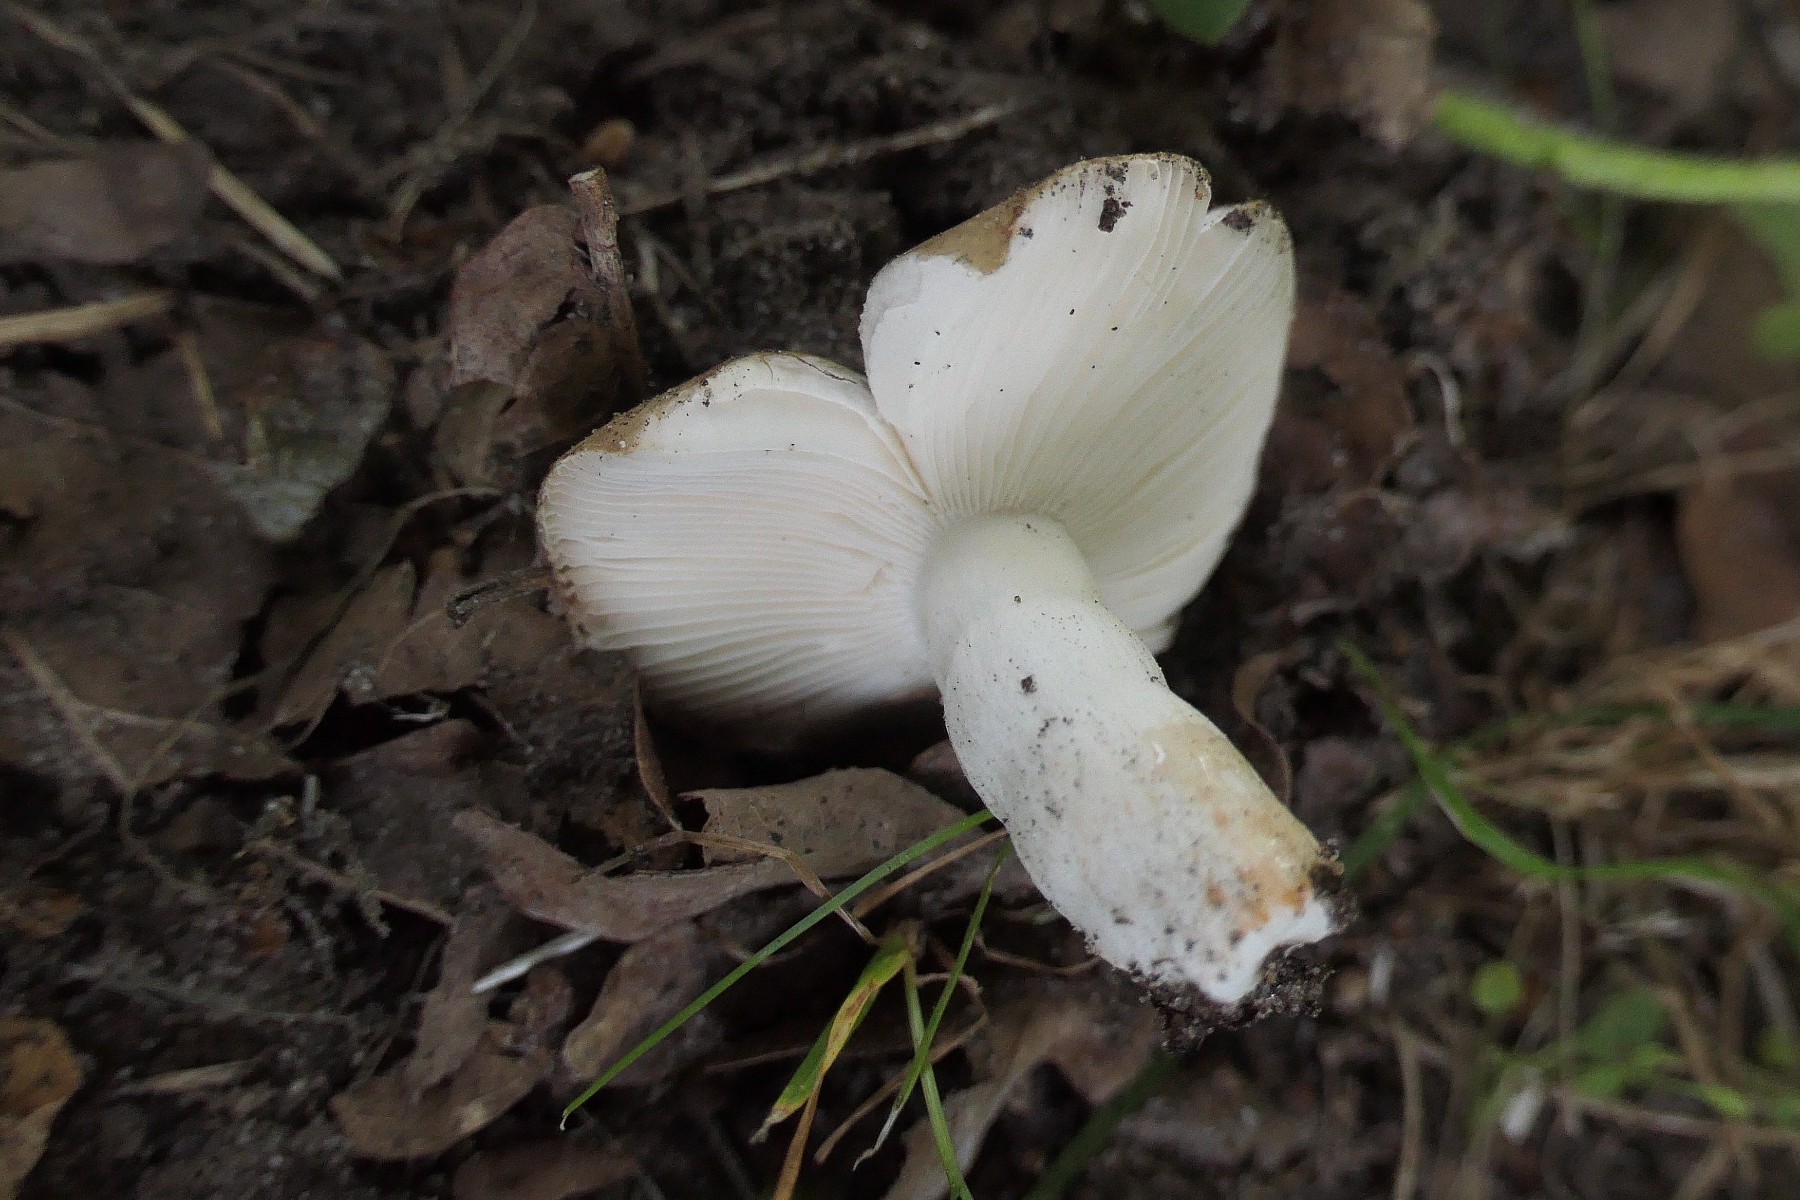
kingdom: Fungi
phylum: Basidiomycota
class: Agaricomycetes
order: Russulales
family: Russulaceae
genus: Russula
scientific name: Russula recondita
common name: mild kam-skørhat
